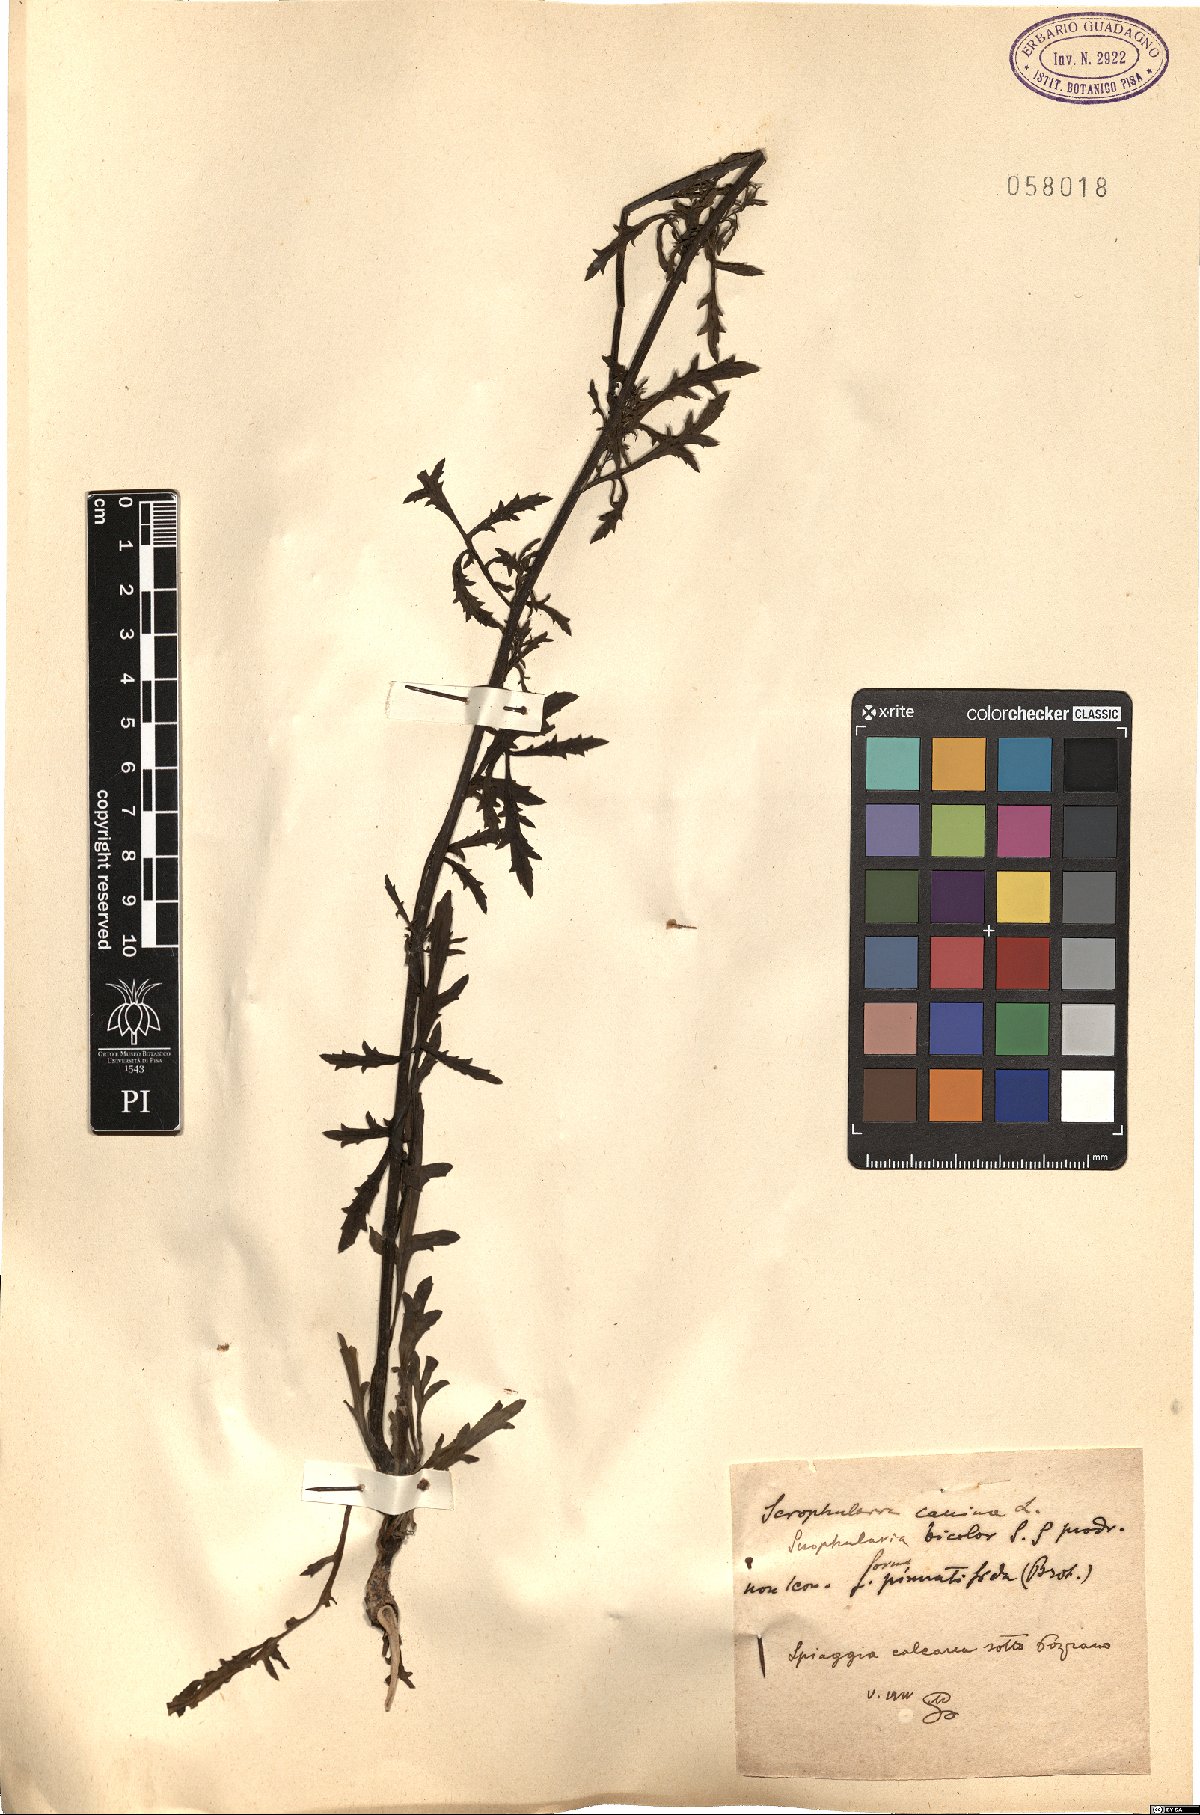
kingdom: Plantae
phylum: Tracheophyta
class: Magnoliopsida
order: Lamiales
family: Scrophulariaceae
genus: Scrophularia
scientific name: Scrophularia canina
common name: French figwort
